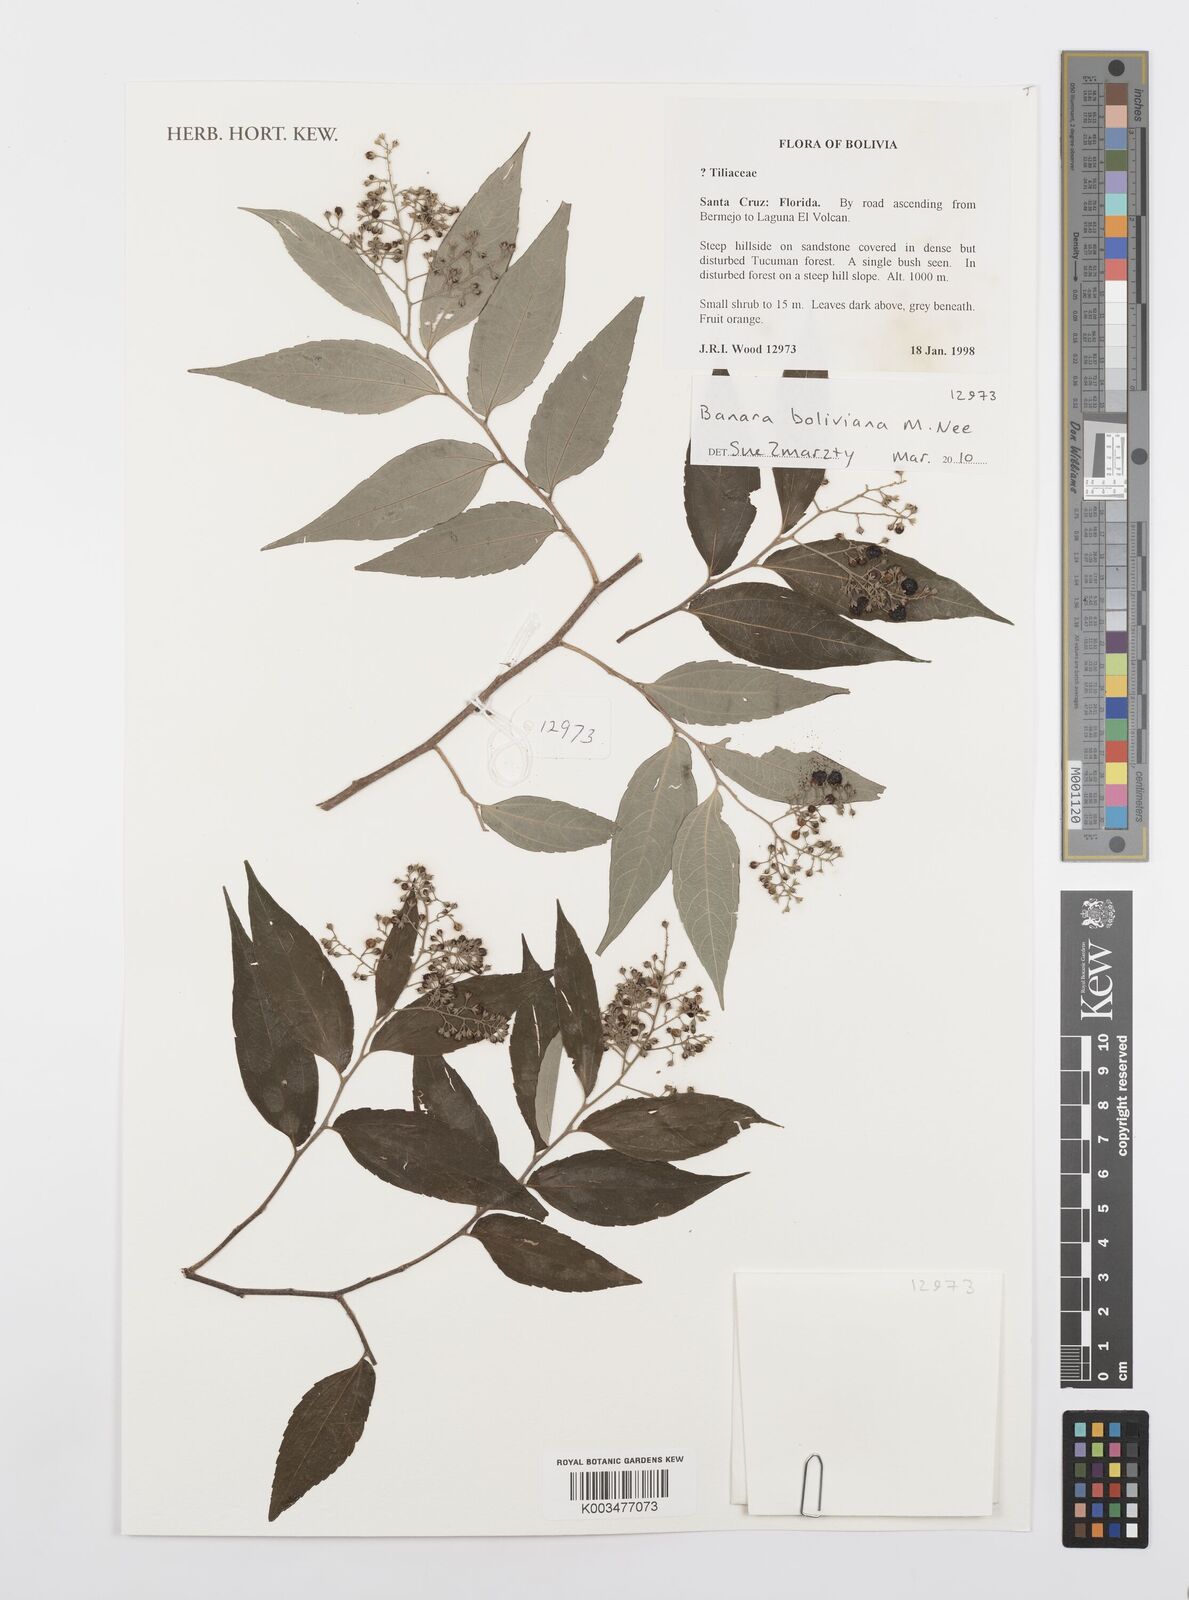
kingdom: Plantae
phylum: Tracheophyta
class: Magnoliopsida
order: Malpighiales
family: Salicaceae
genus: Banara
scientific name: Banara boliviana
